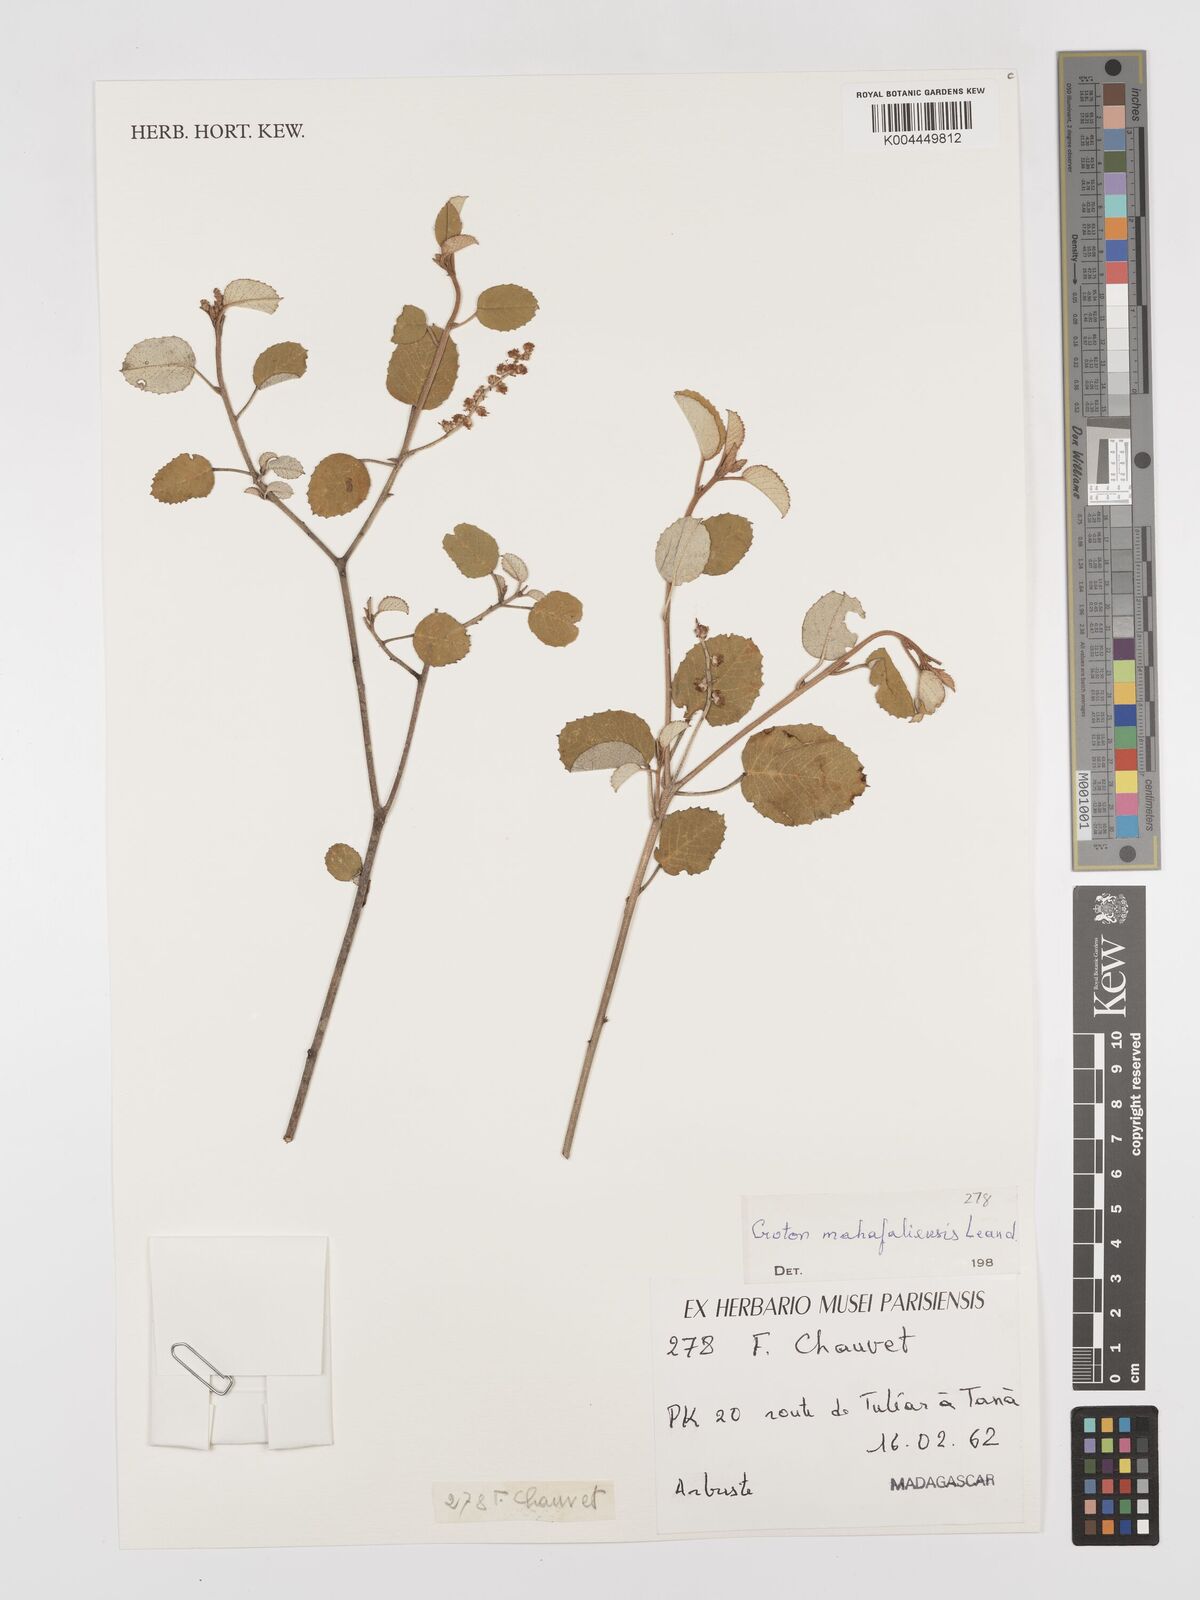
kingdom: Plantae
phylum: Tracheophyta
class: Magnoliopsida
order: Malpighiales
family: Euphorbiaceae
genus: Croton
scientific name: Croton cotoneaster
